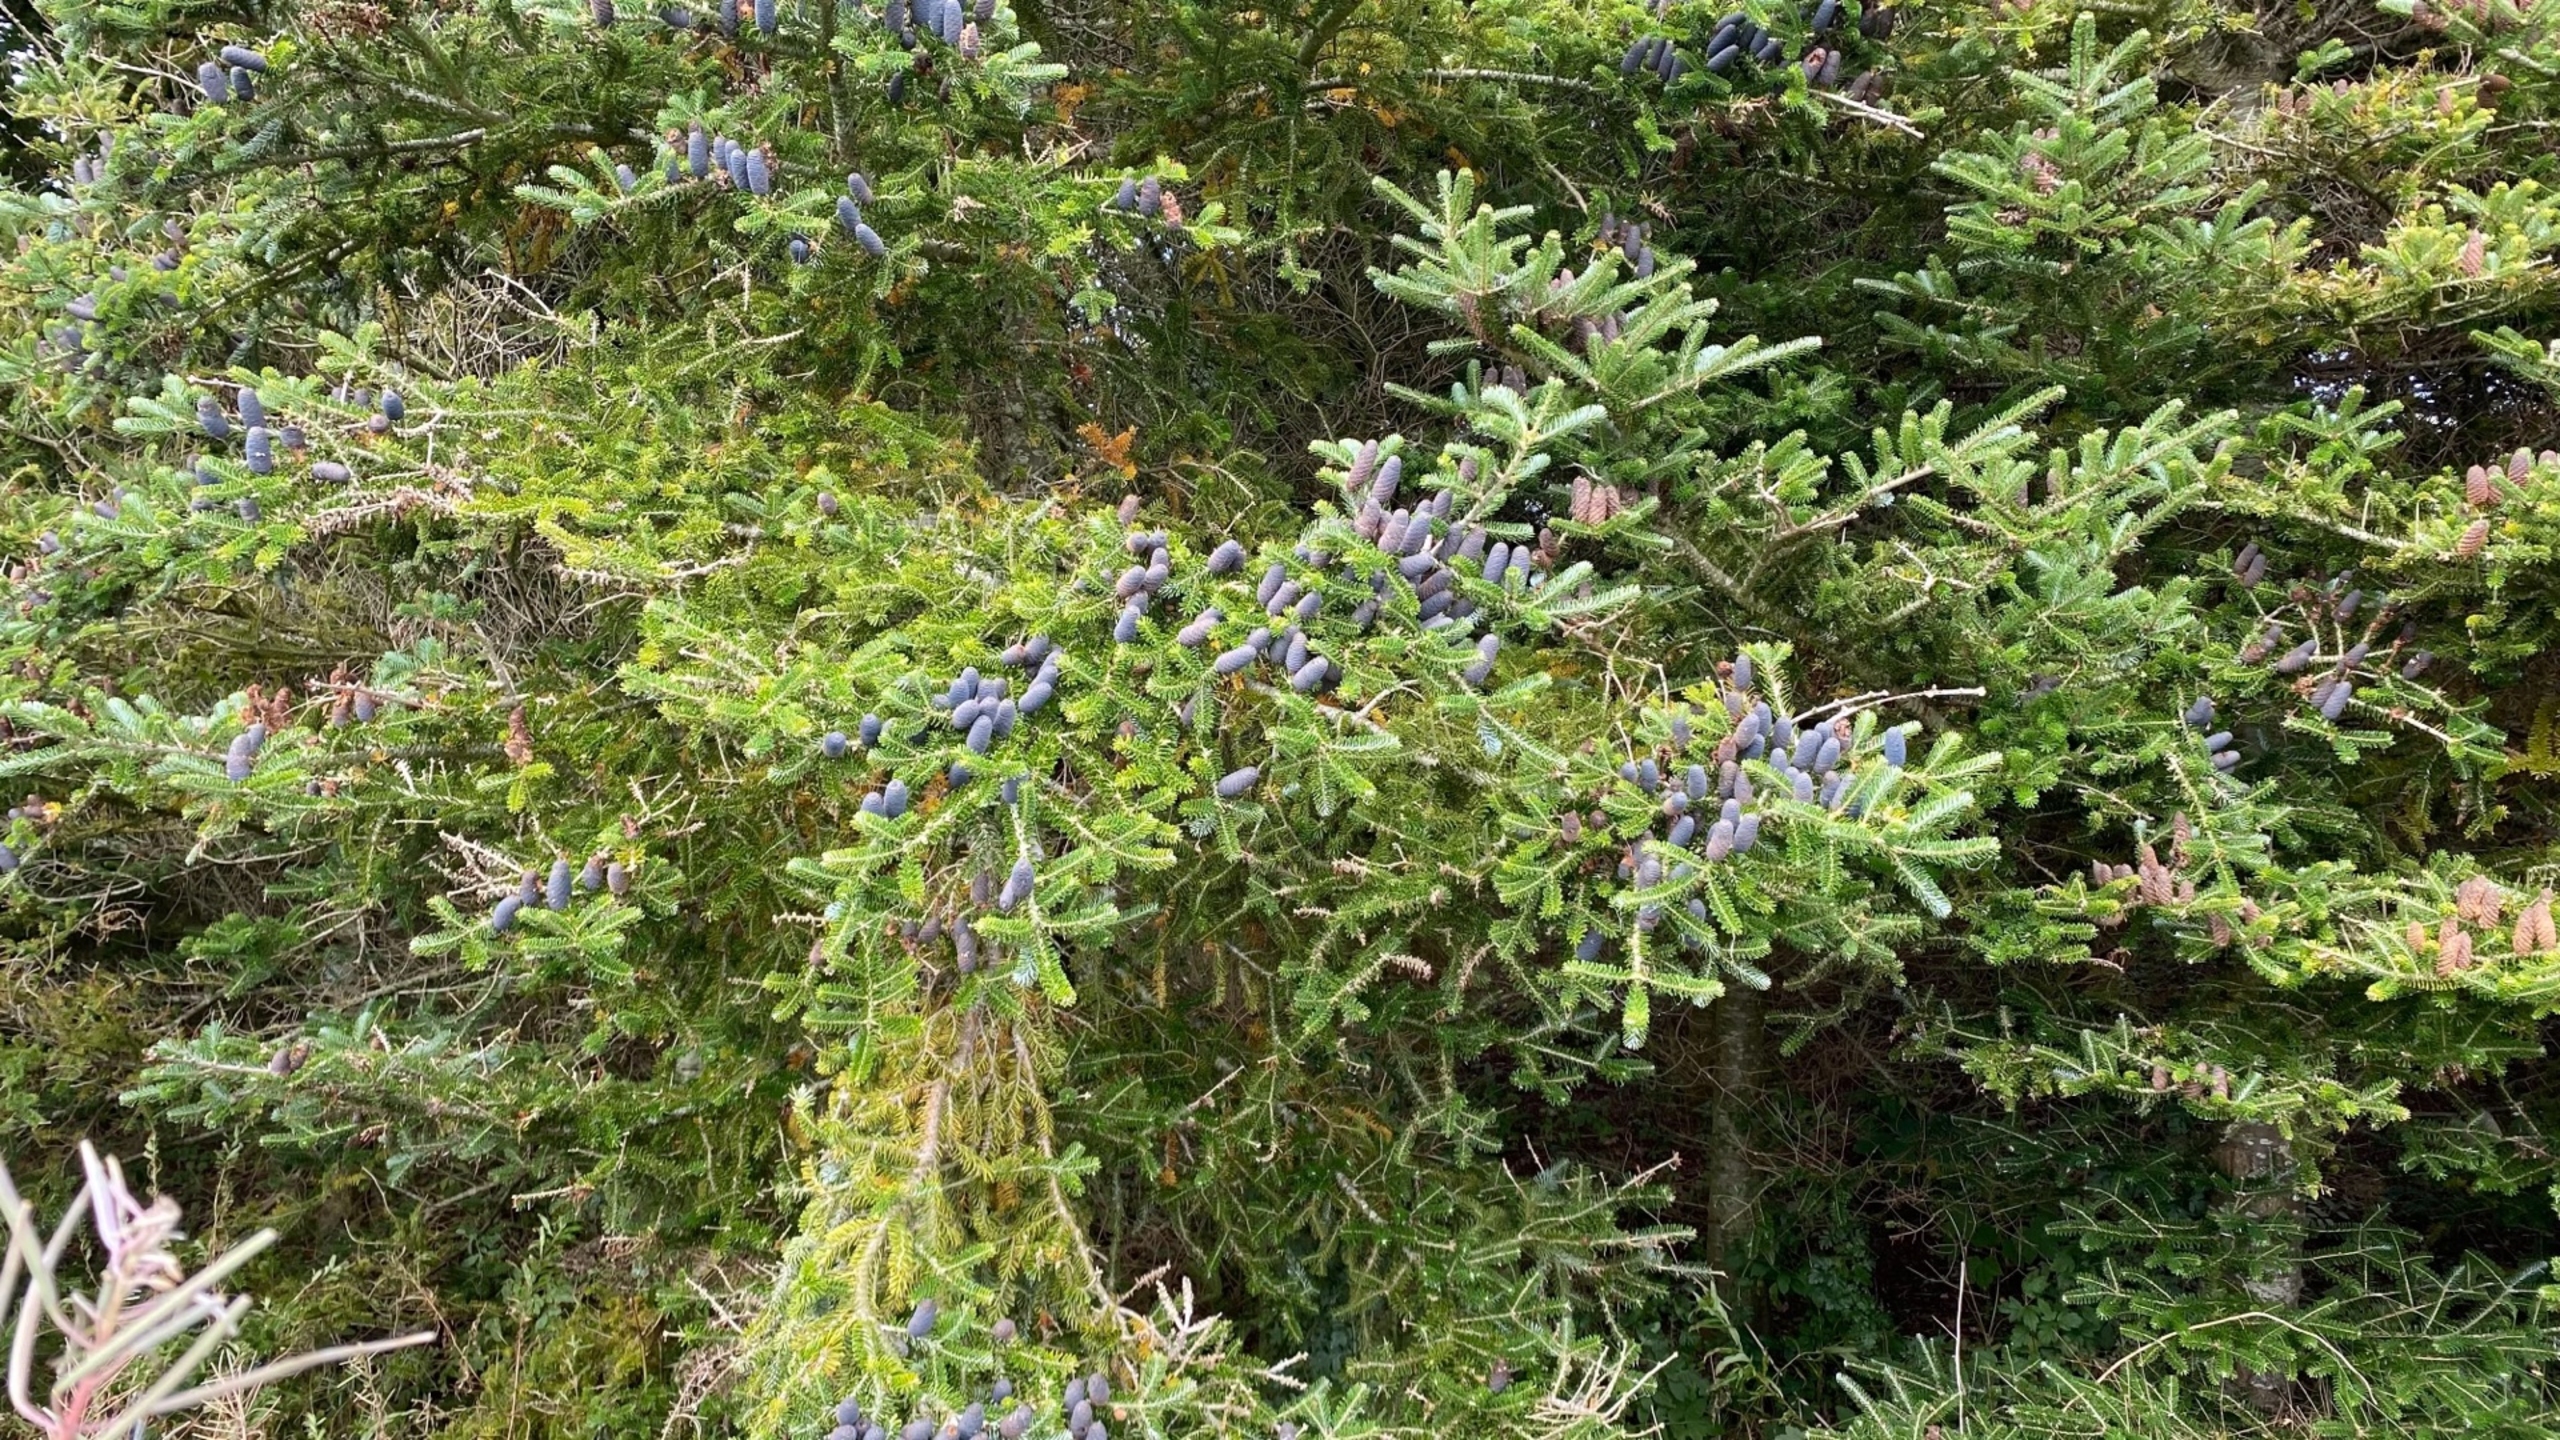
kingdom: Plantae
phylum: Tracheophyta
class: Pinopsida
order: Pinales
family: Pinaceae
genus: Abies
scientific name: Abies koreana
